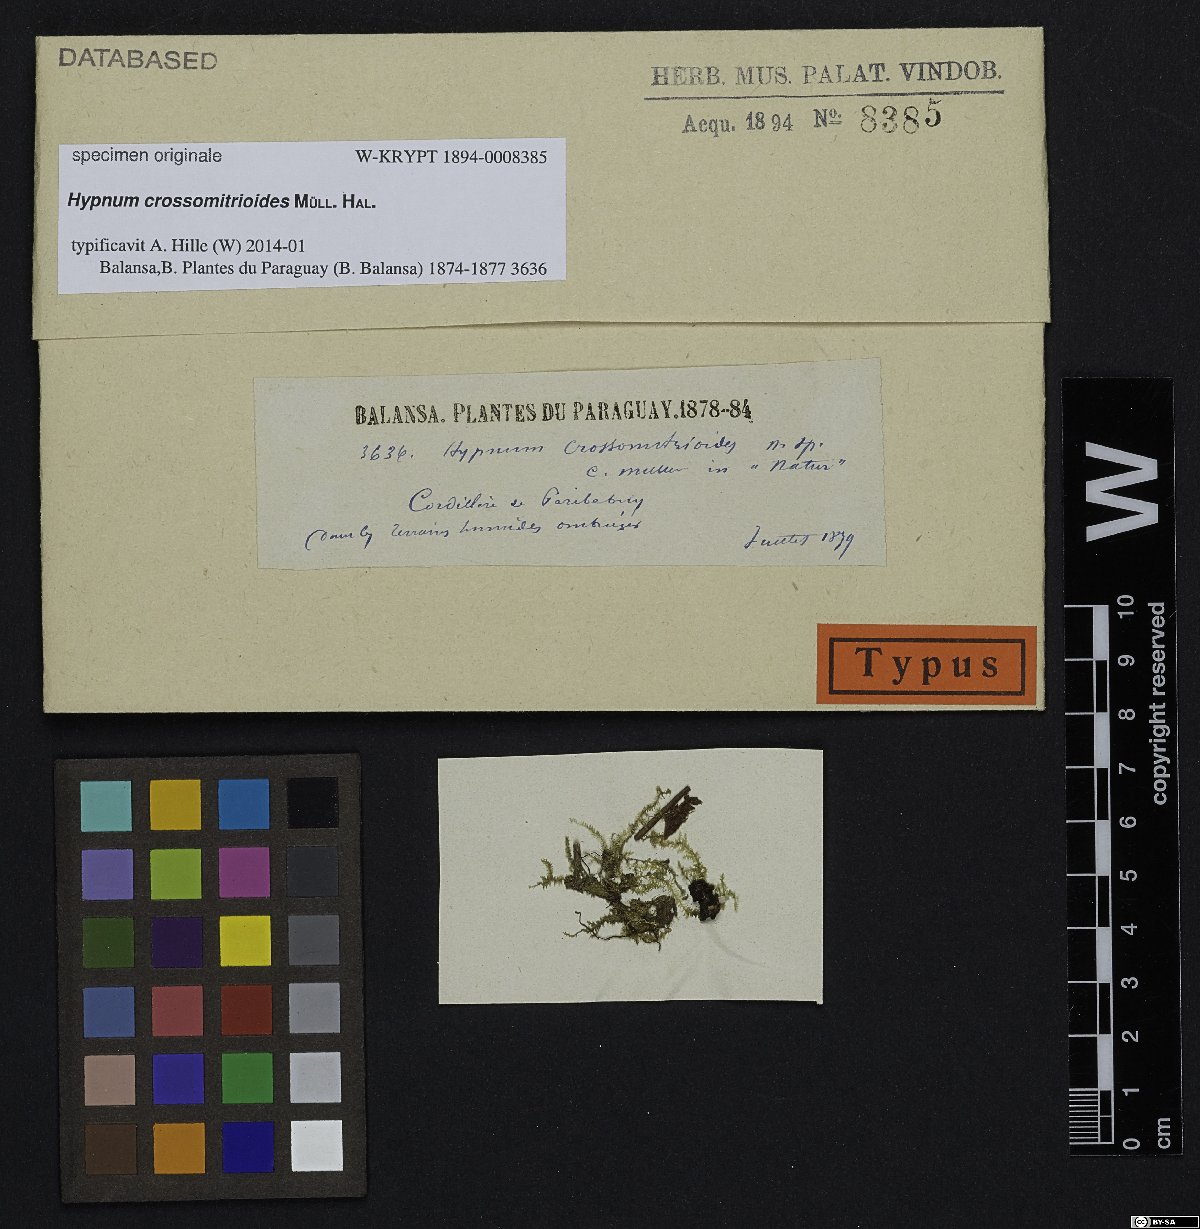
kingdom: Plantae
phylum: Bryophyta
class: Bryopsida
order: Hypnales
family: Hypnaceae
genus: Hypnum
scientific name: Hypnum
